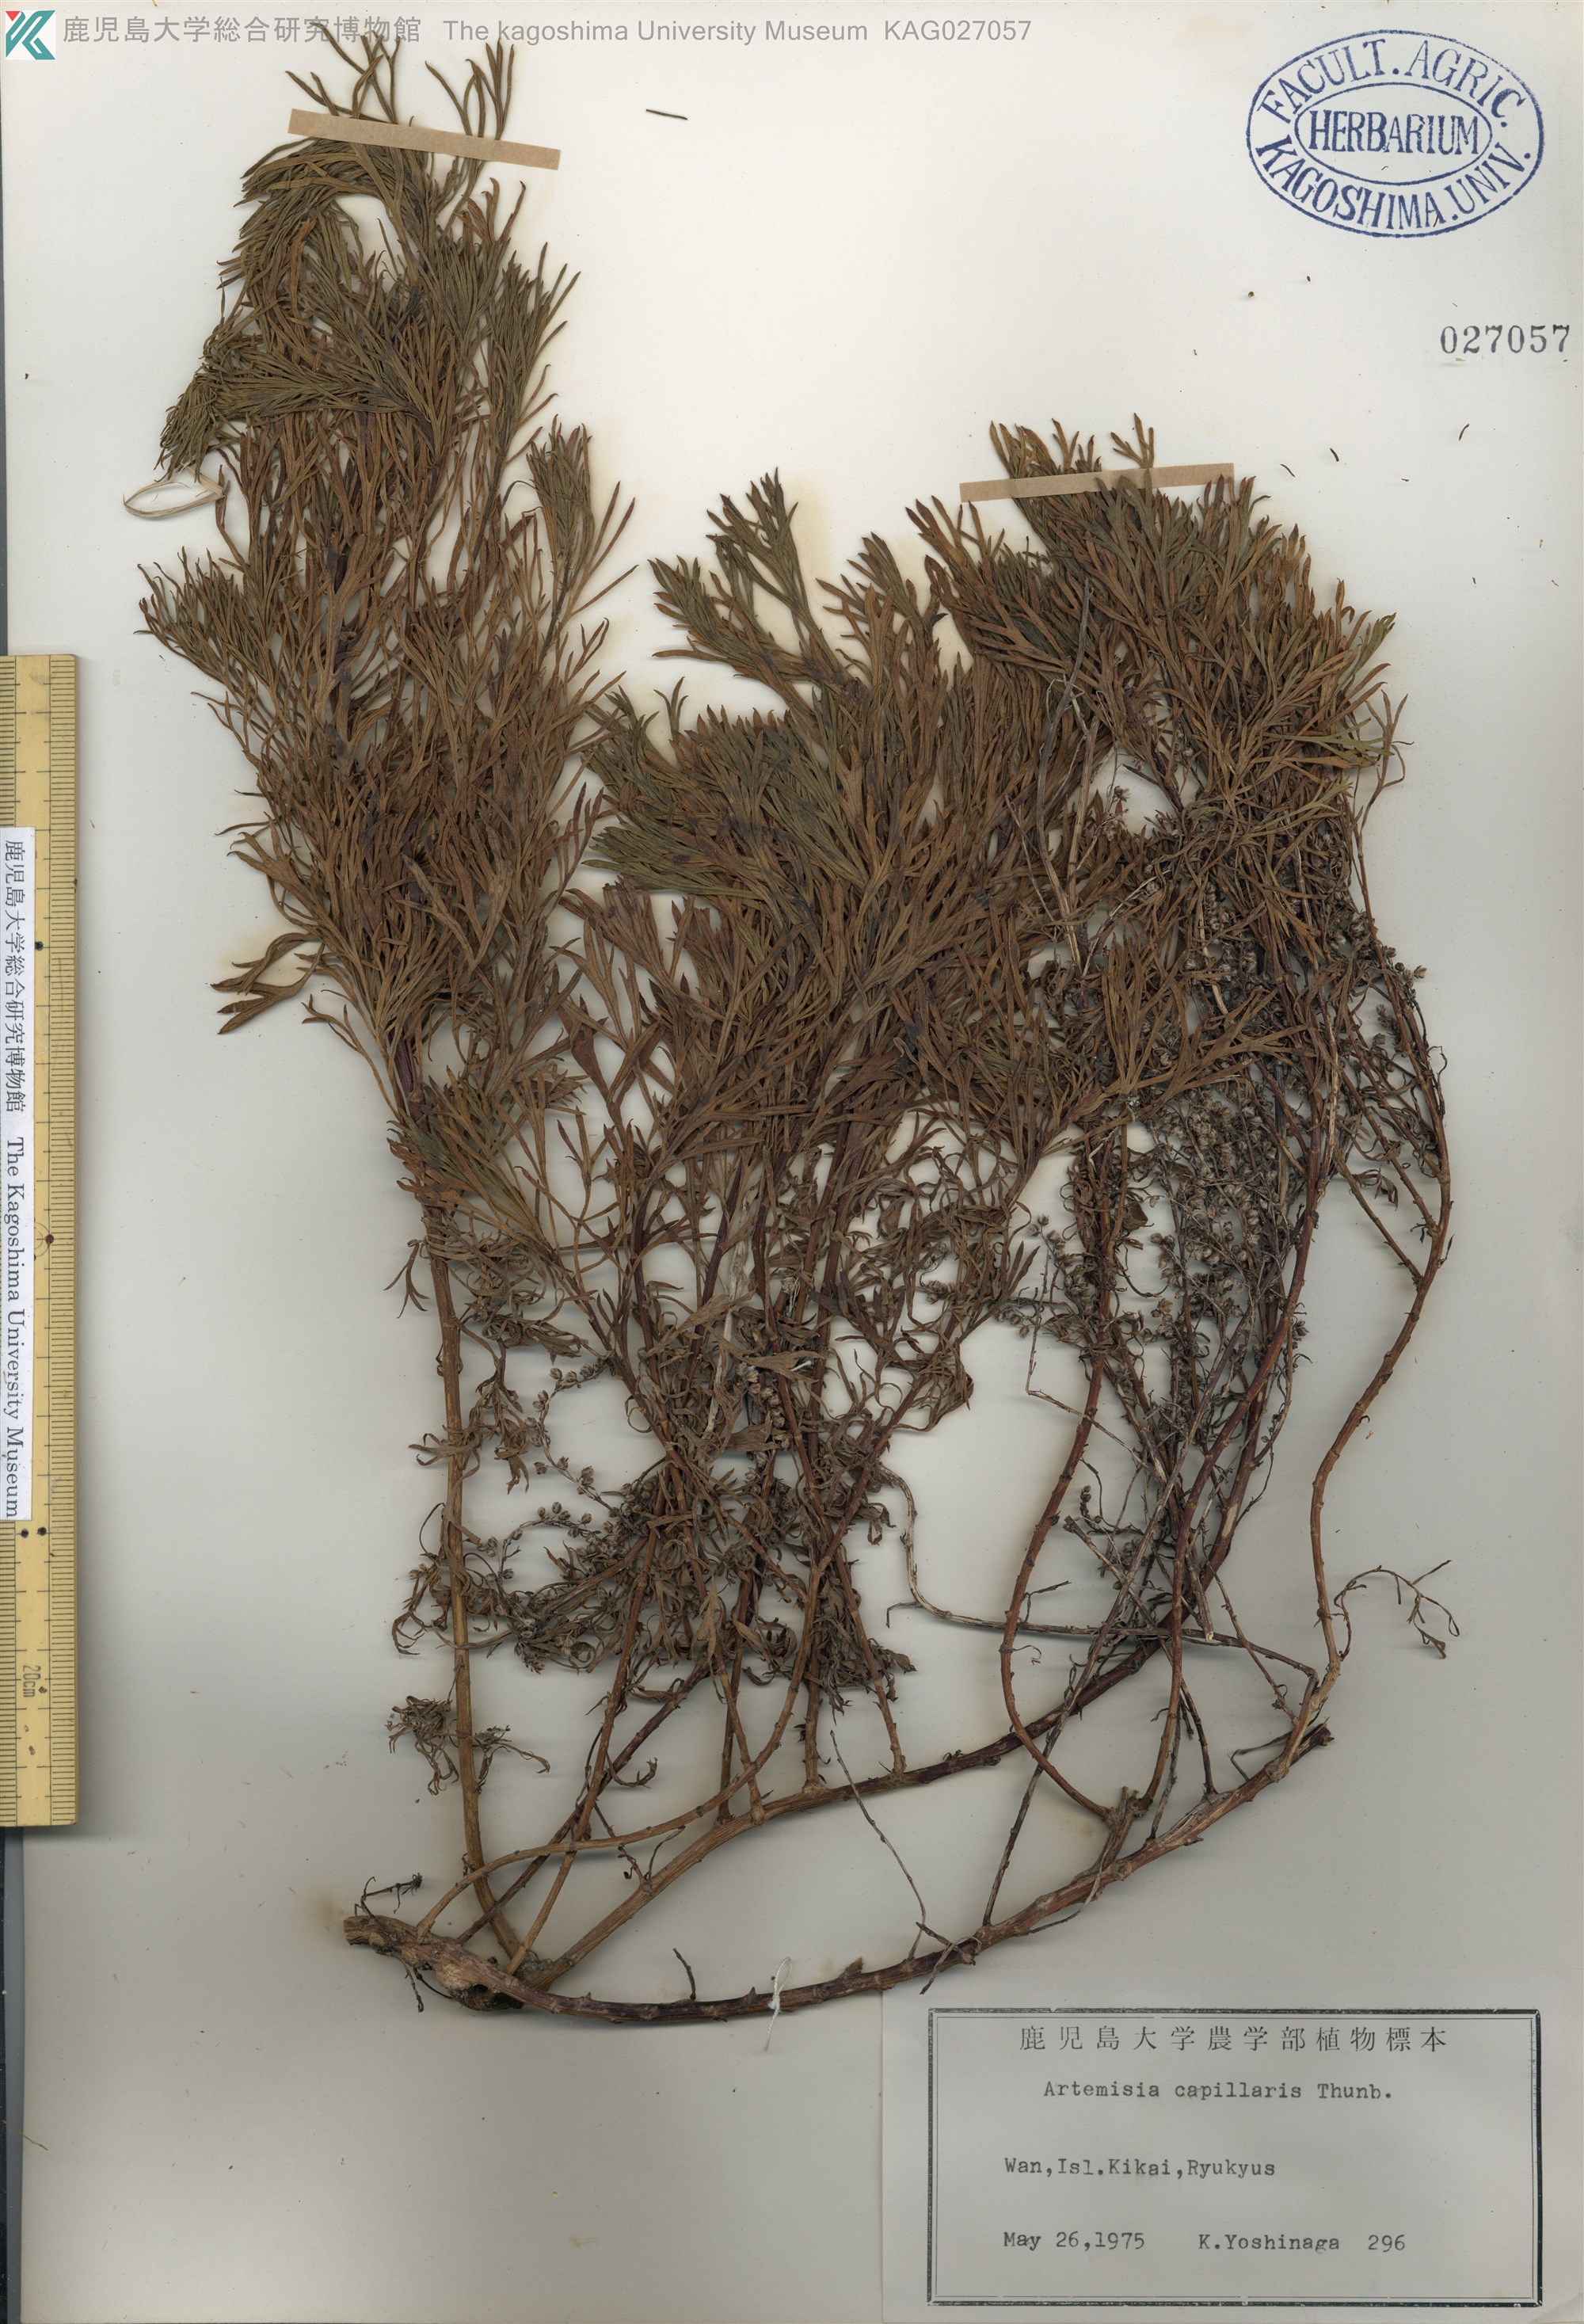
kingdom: Plantae
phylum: Tracheophyta
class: Magnoliopsida
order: Asterales
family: Asteraceae
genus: Artemisia
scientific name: Artemisia capillaris
